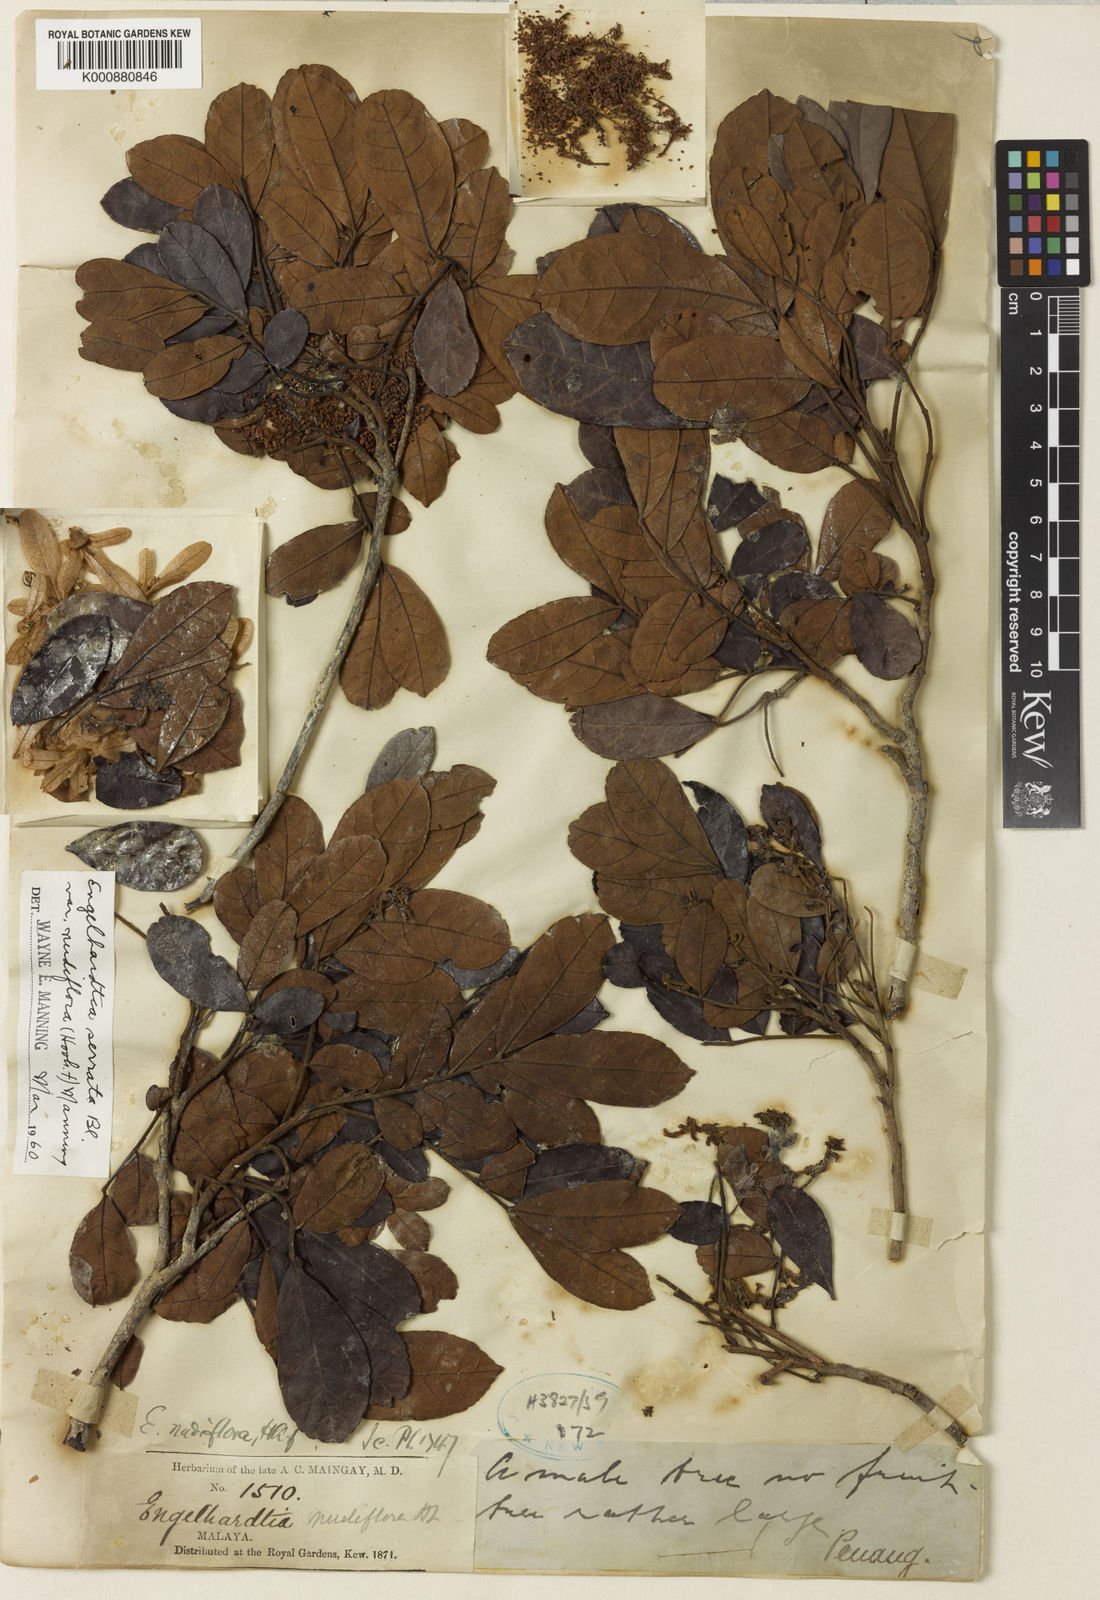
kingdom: Plantae
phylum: Tracheophyta
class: Magnoliopsida
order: Fagales
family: Juglandaceae
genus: Engelhardia
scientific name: Engelhardia serrata
